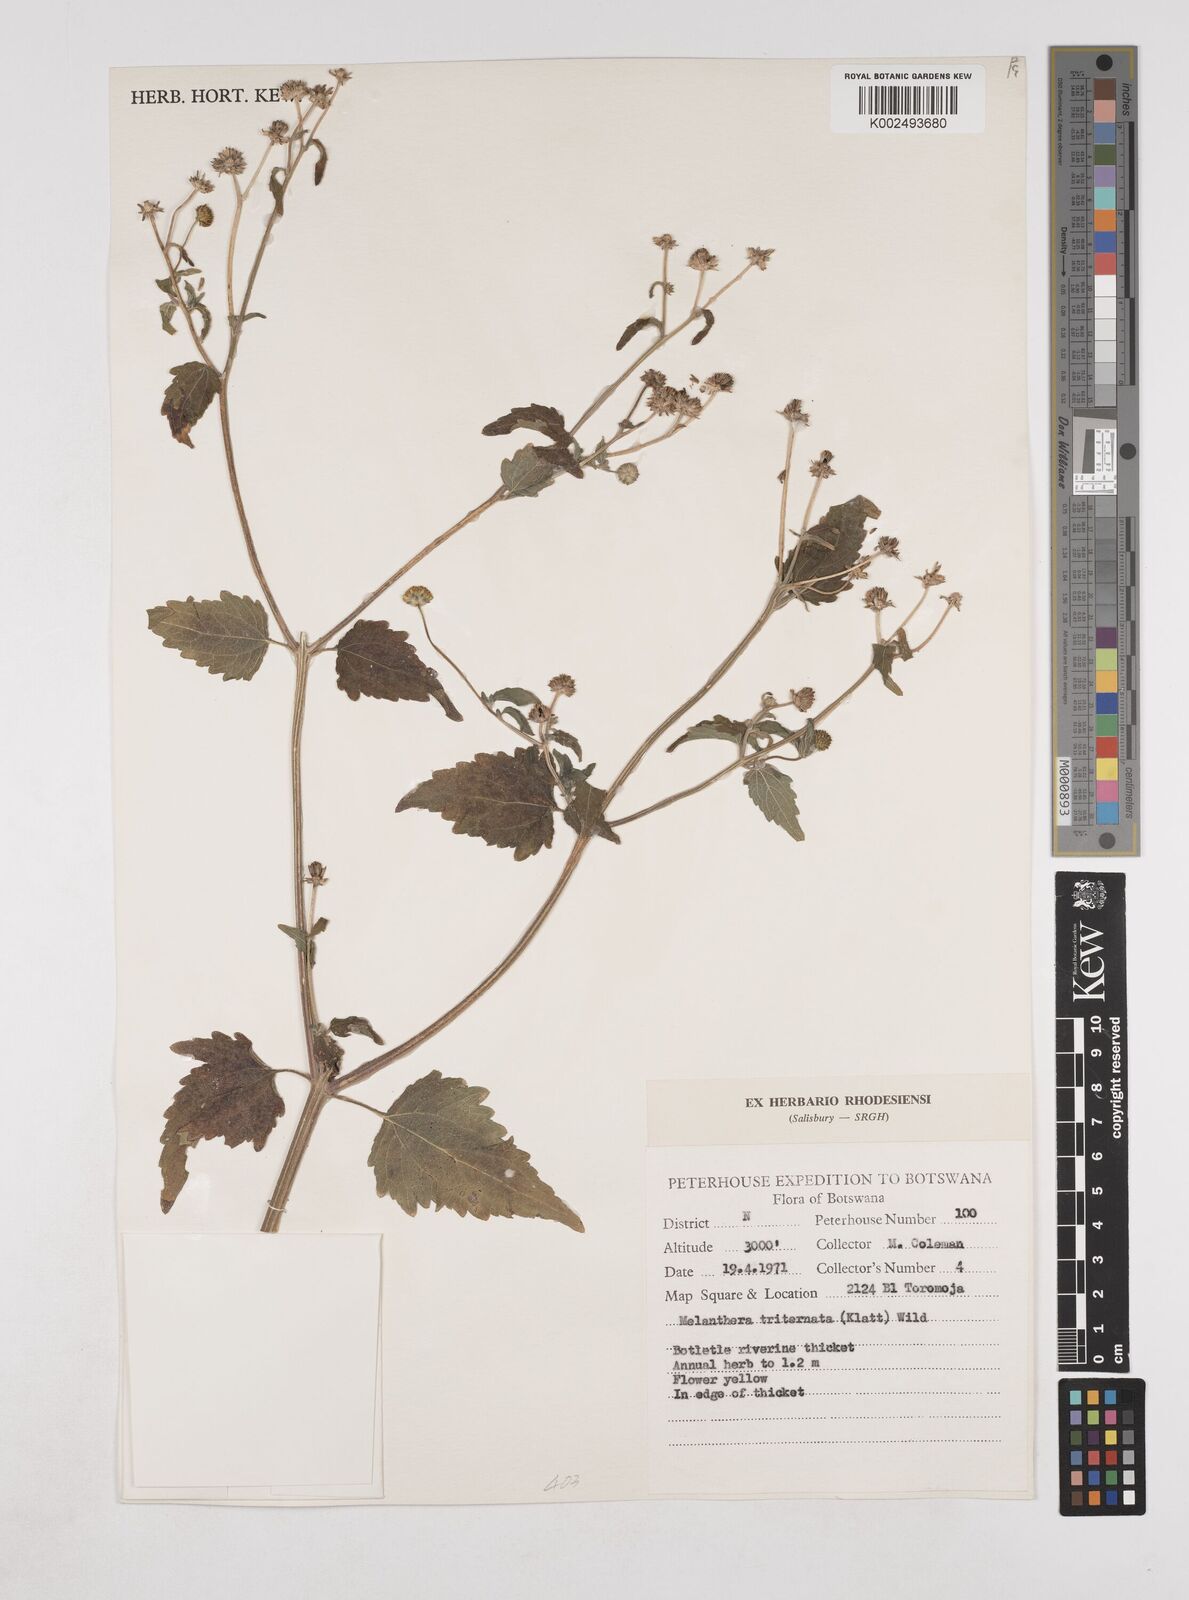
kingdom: Plantae
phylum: Tracheophyta
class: Magnoliopsida
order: Asterales
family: Asteraceae
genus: Lipotriche
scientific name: Lipotriche marlothiana
